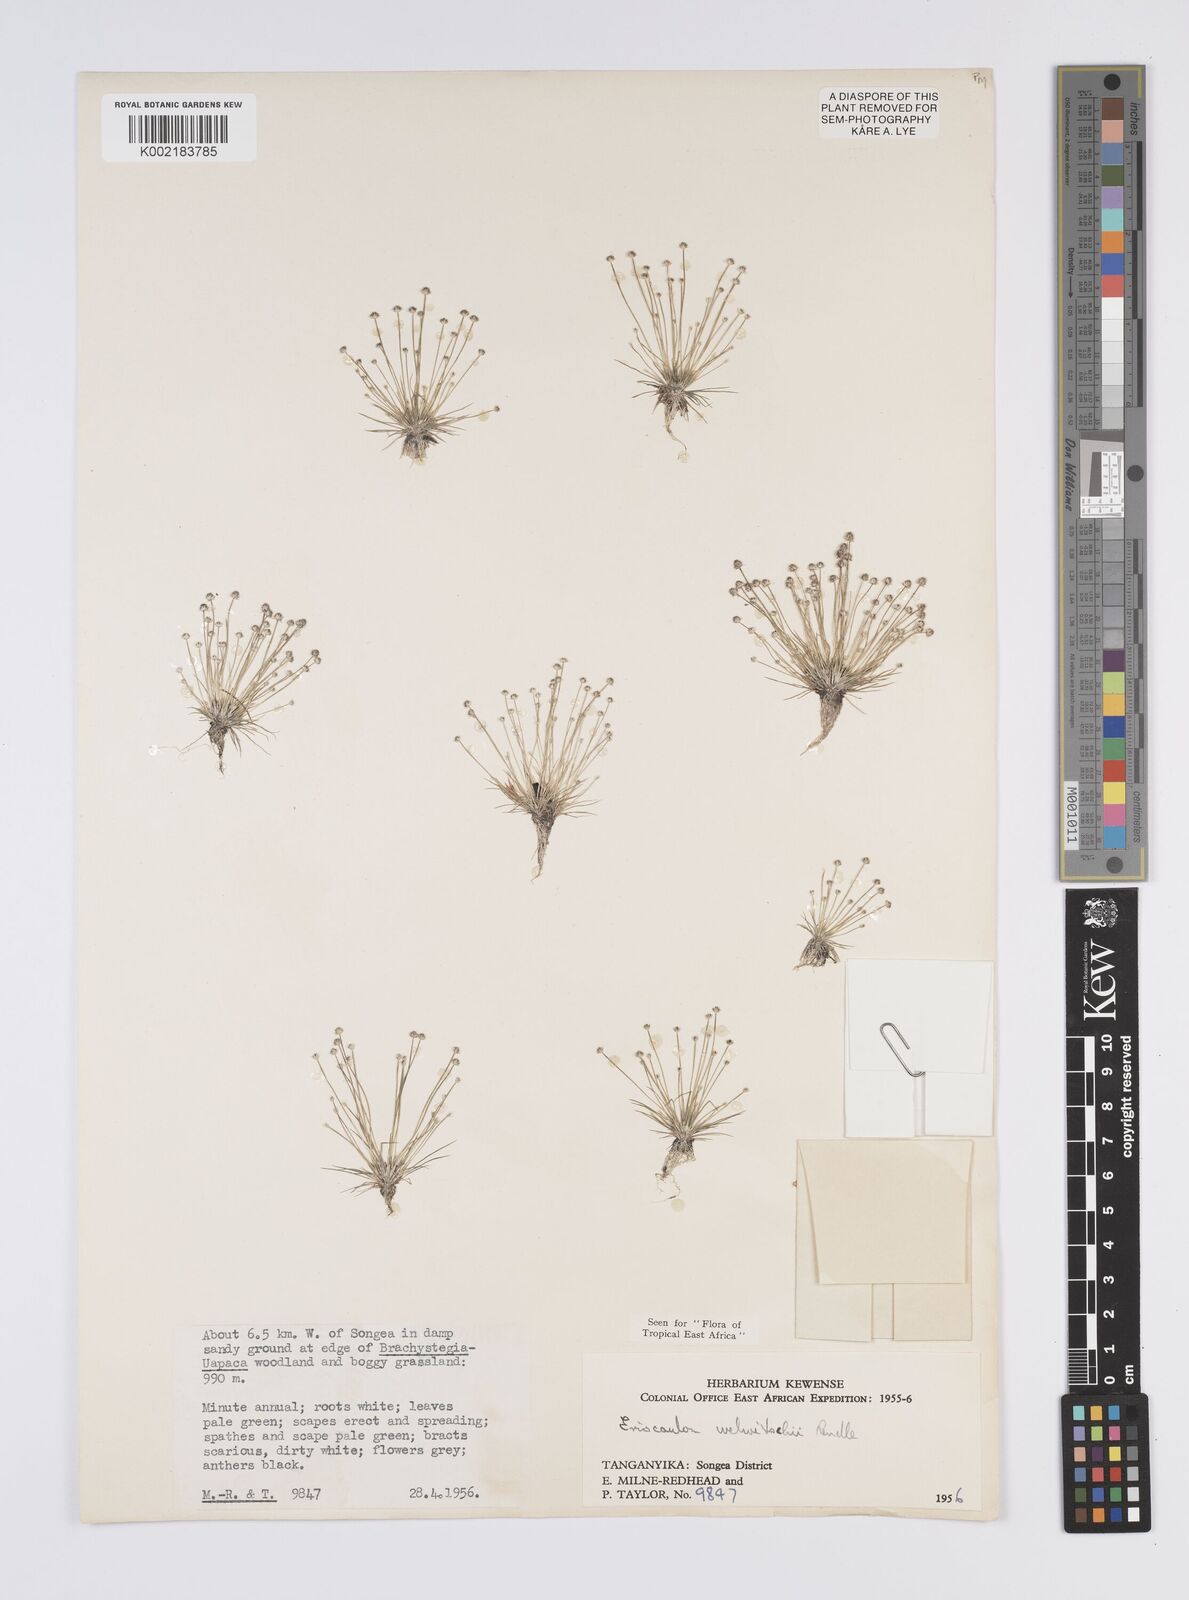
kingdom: Plantae
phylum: Tracheophyta
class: Liliopsida
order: Poales
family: Eriocaulaceae
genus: Eriocaulon
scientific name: Eriocaulon welwitschii
